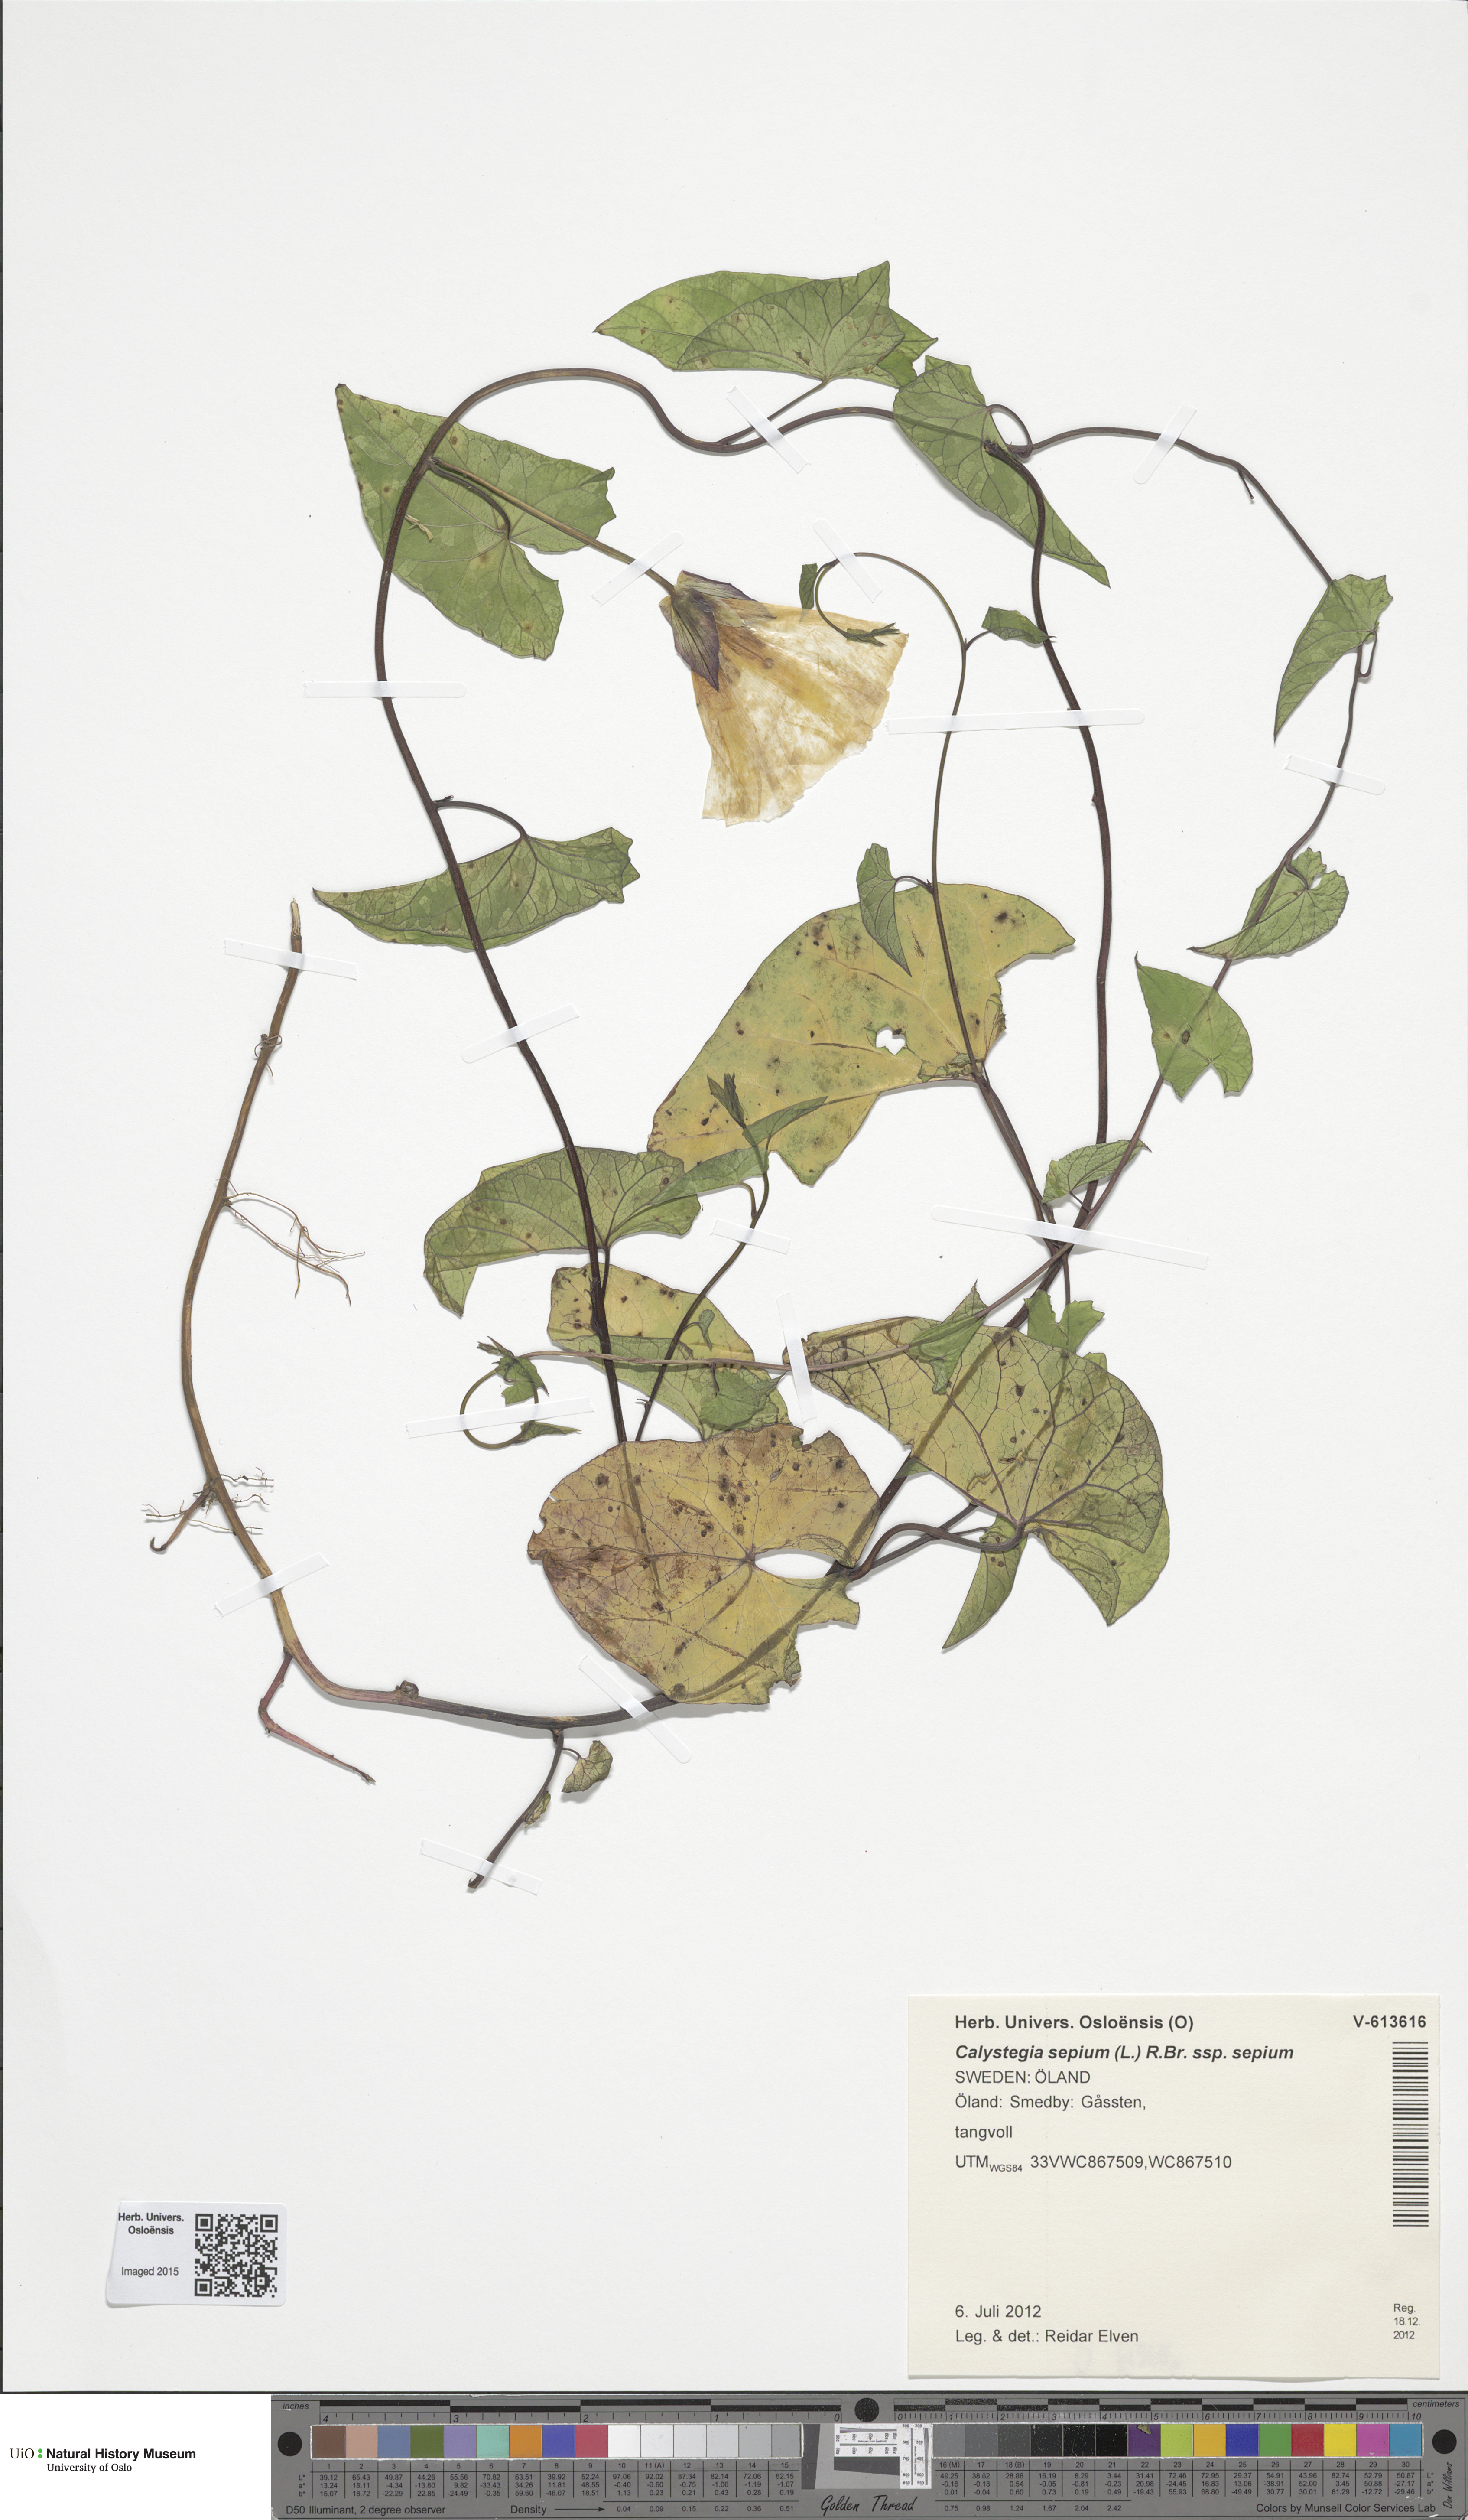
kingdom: Plantae
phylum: Tracheophyta
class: Magnoliopsida
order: Solanales
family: Convolvulaceae
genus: Calystegia
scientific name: Calystegia sepium
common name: Hedge bindweed
